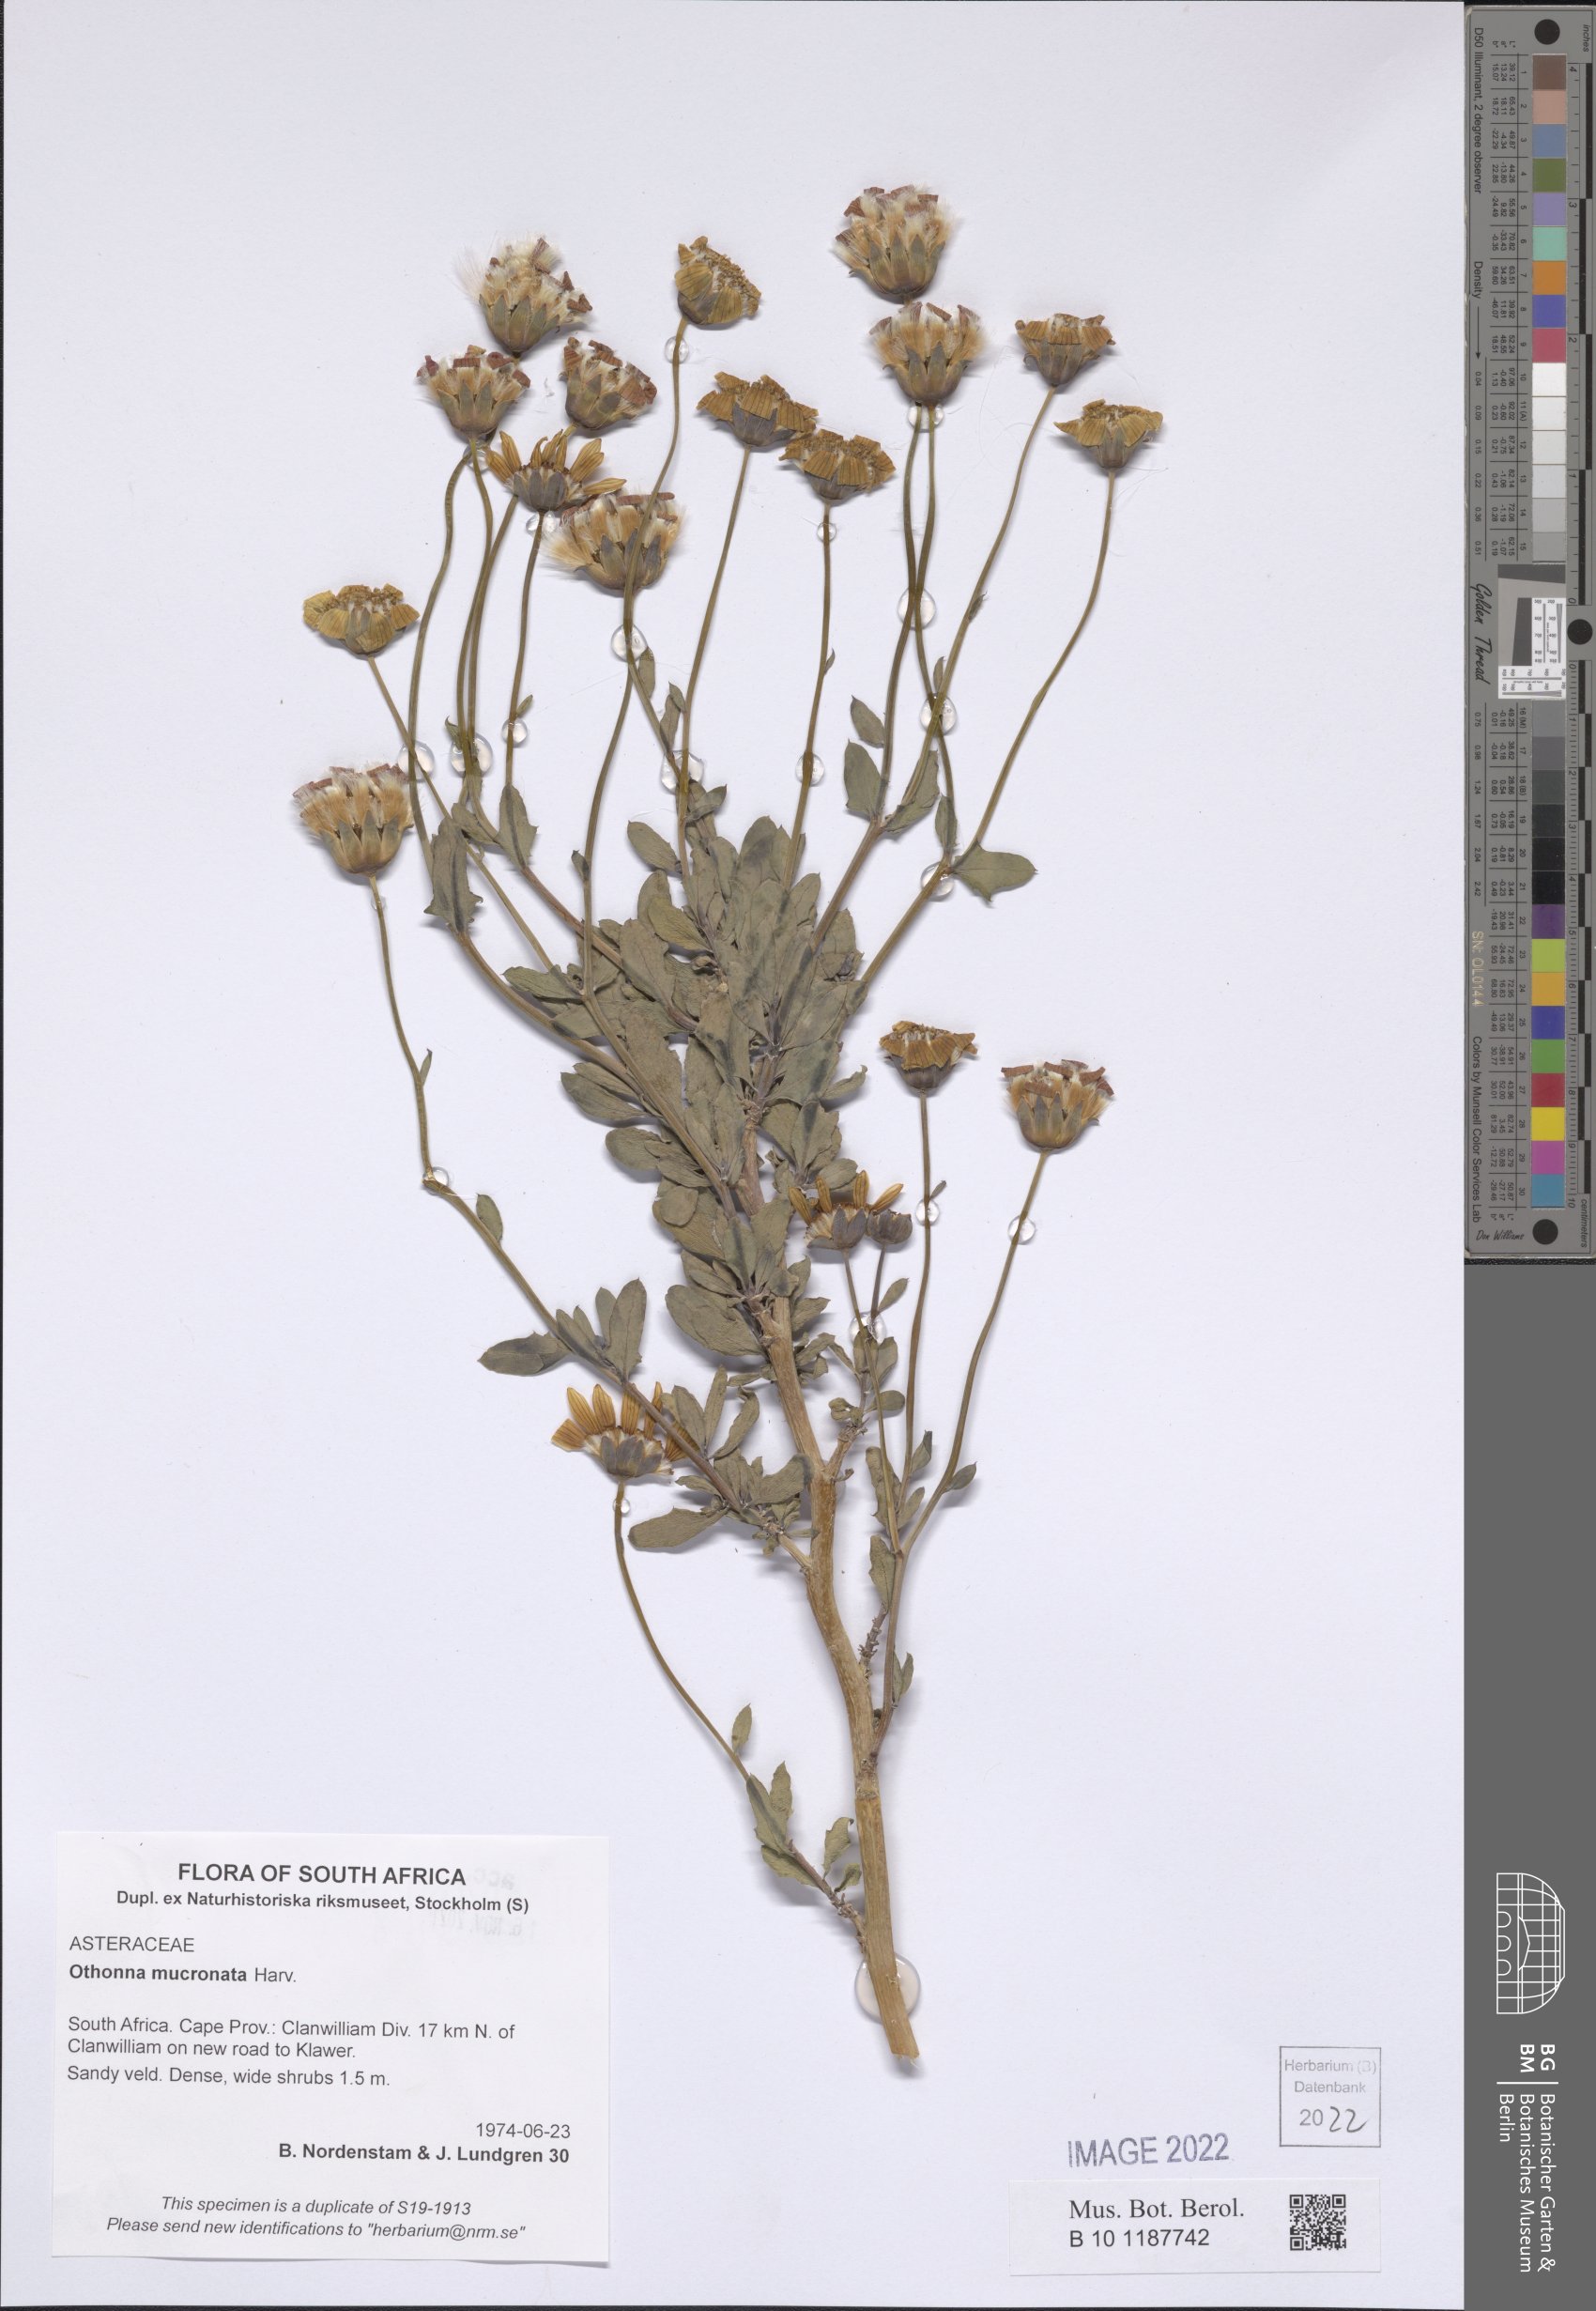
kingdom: Plantae
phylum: Tracheophyta
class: Magnoliopsida
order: Asterales
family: Asteraceae
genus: Othonna
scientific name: Othonna mucronata
